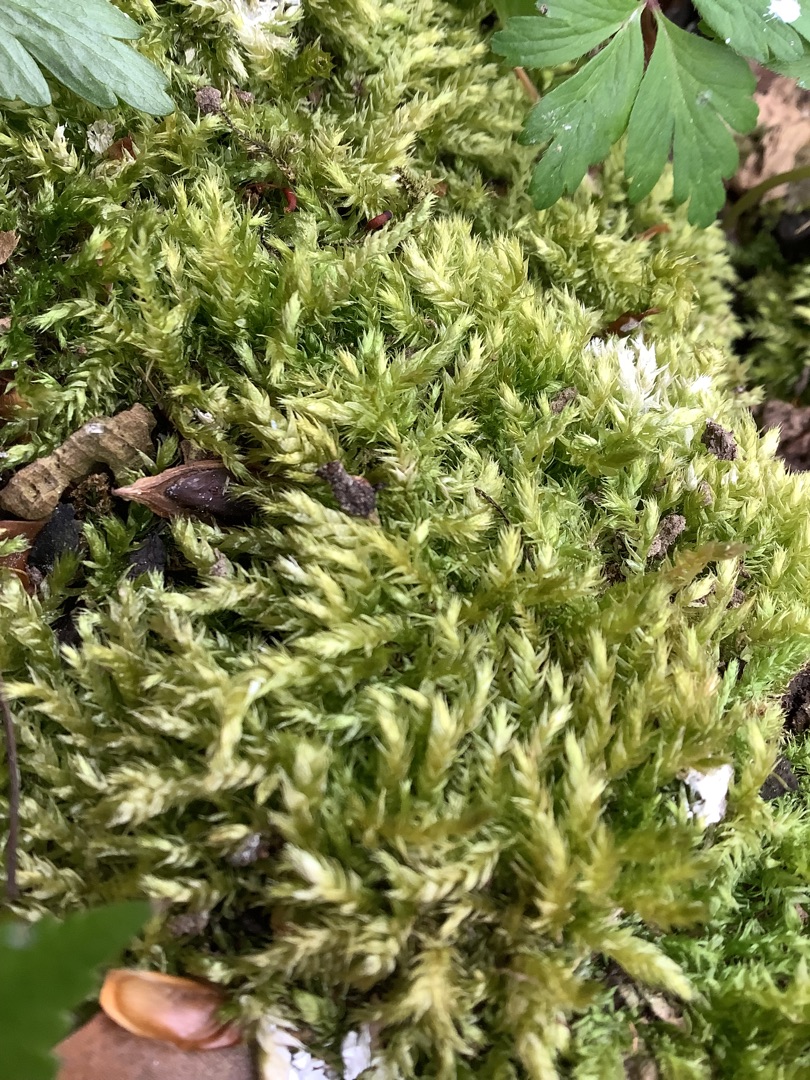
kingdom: Plantae
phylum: Bryophyta
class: Bryopsida
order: Hypnales
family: Brachytheciaceae
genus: Brachythecium
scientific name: Brachythecium rutabulum
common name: Almindelig kortkapsel
